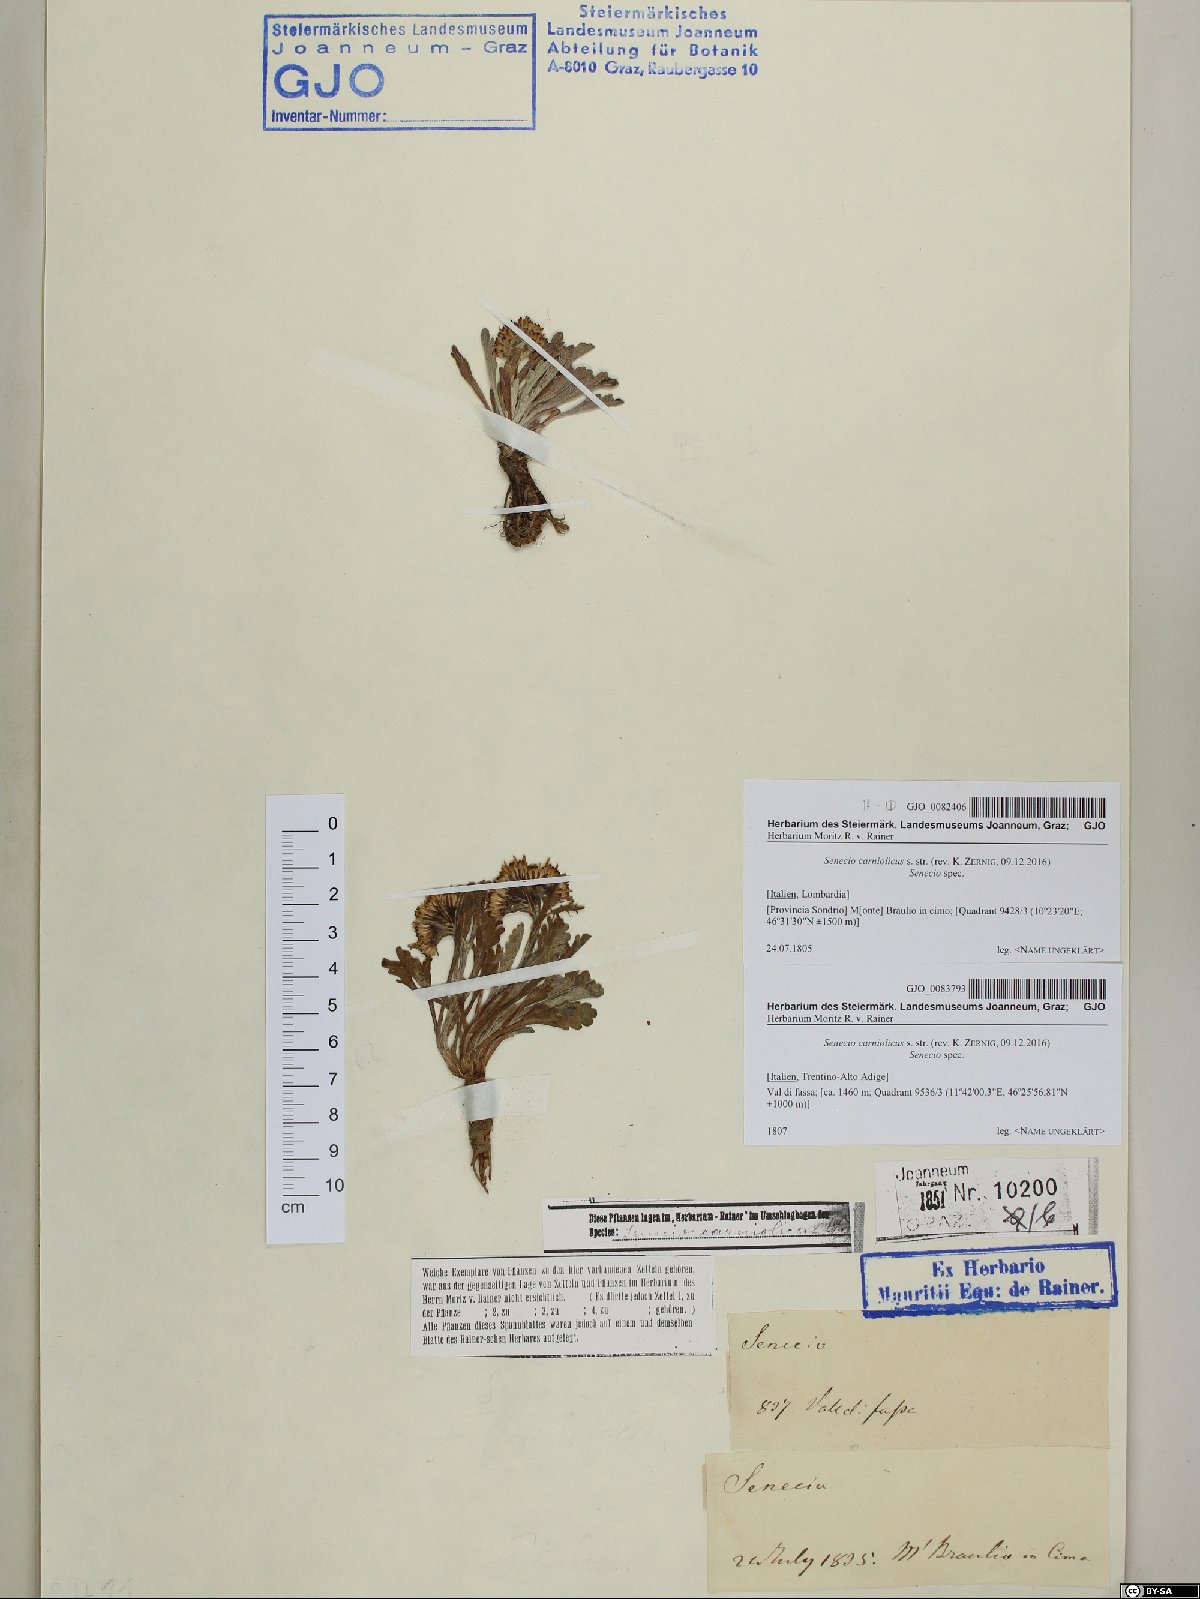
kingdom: Plantae
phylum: Tracheophyta
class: Magnoliopsida
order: Asterales
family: Asteraceae
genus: Jacobaea
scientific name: Jacobaea carniolica
